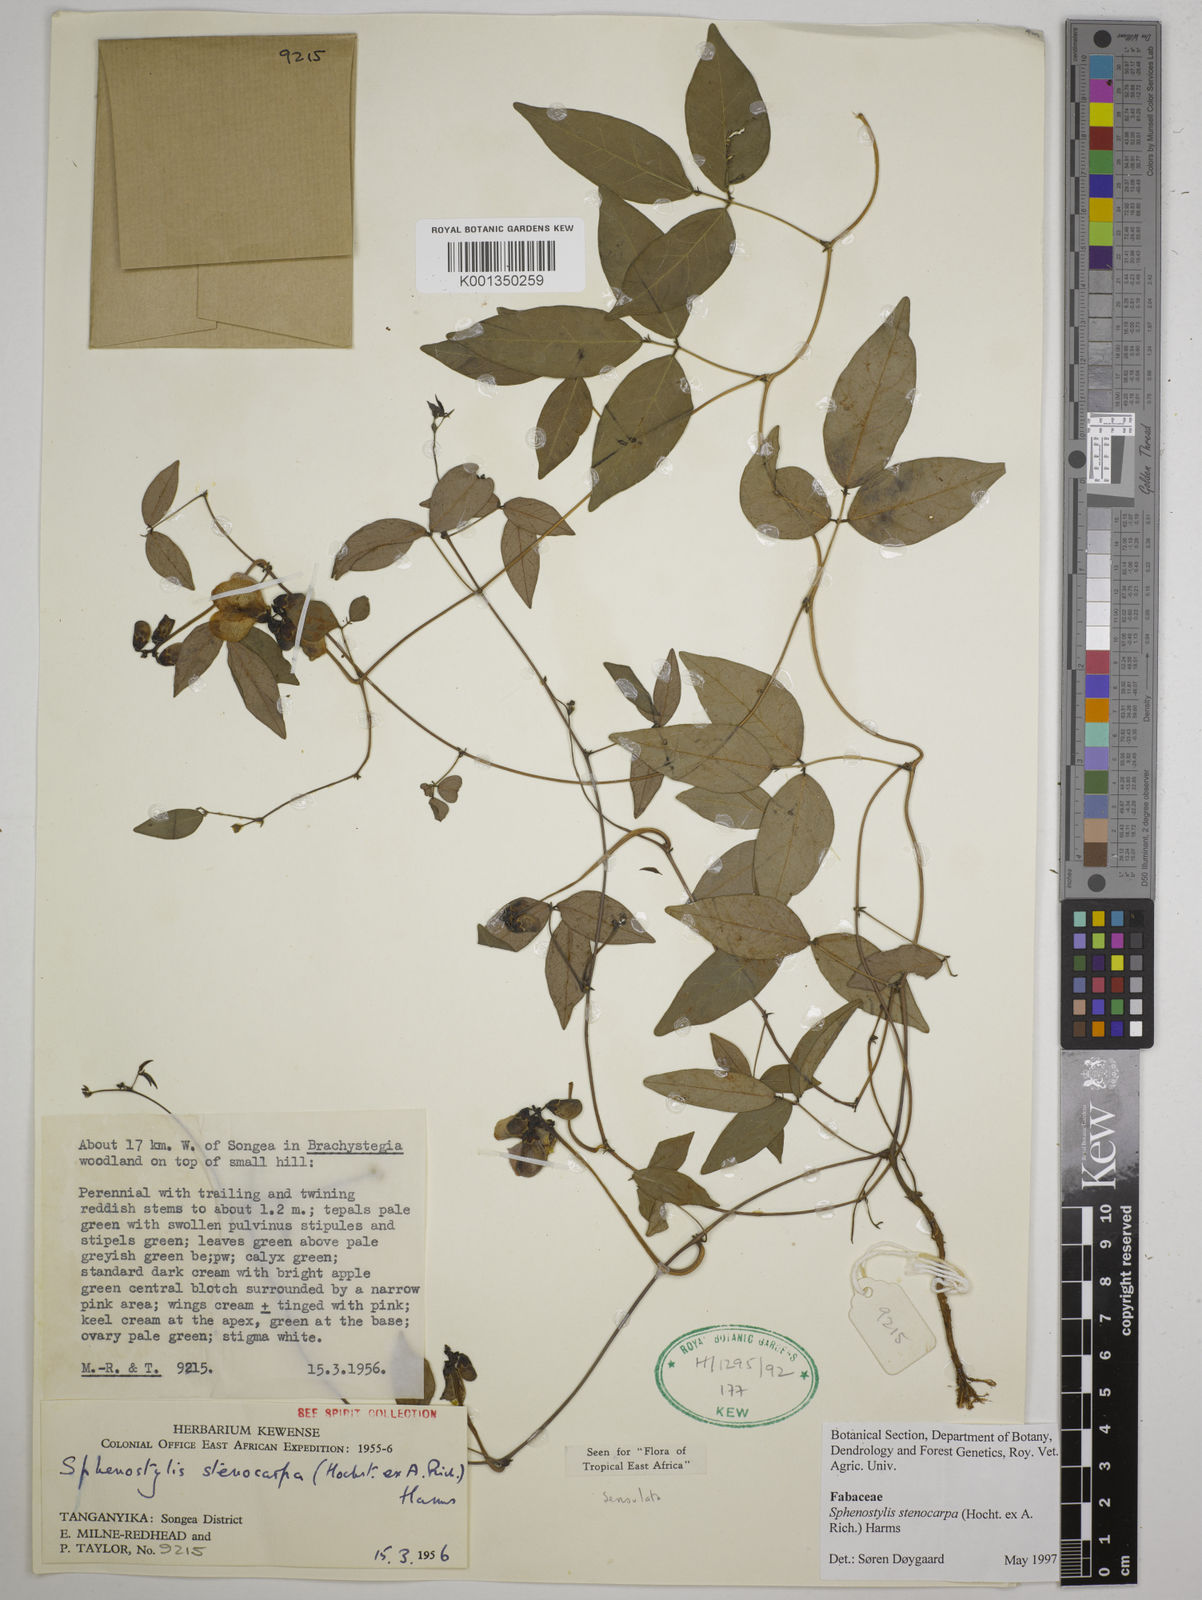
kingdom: Plantae
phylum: Tracheophyta
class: Magnoliopsida
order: Fabales
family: Fabaceae
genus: Sphenostylis
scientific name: Sphenostylis stenocarpa
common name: Yam-pea
